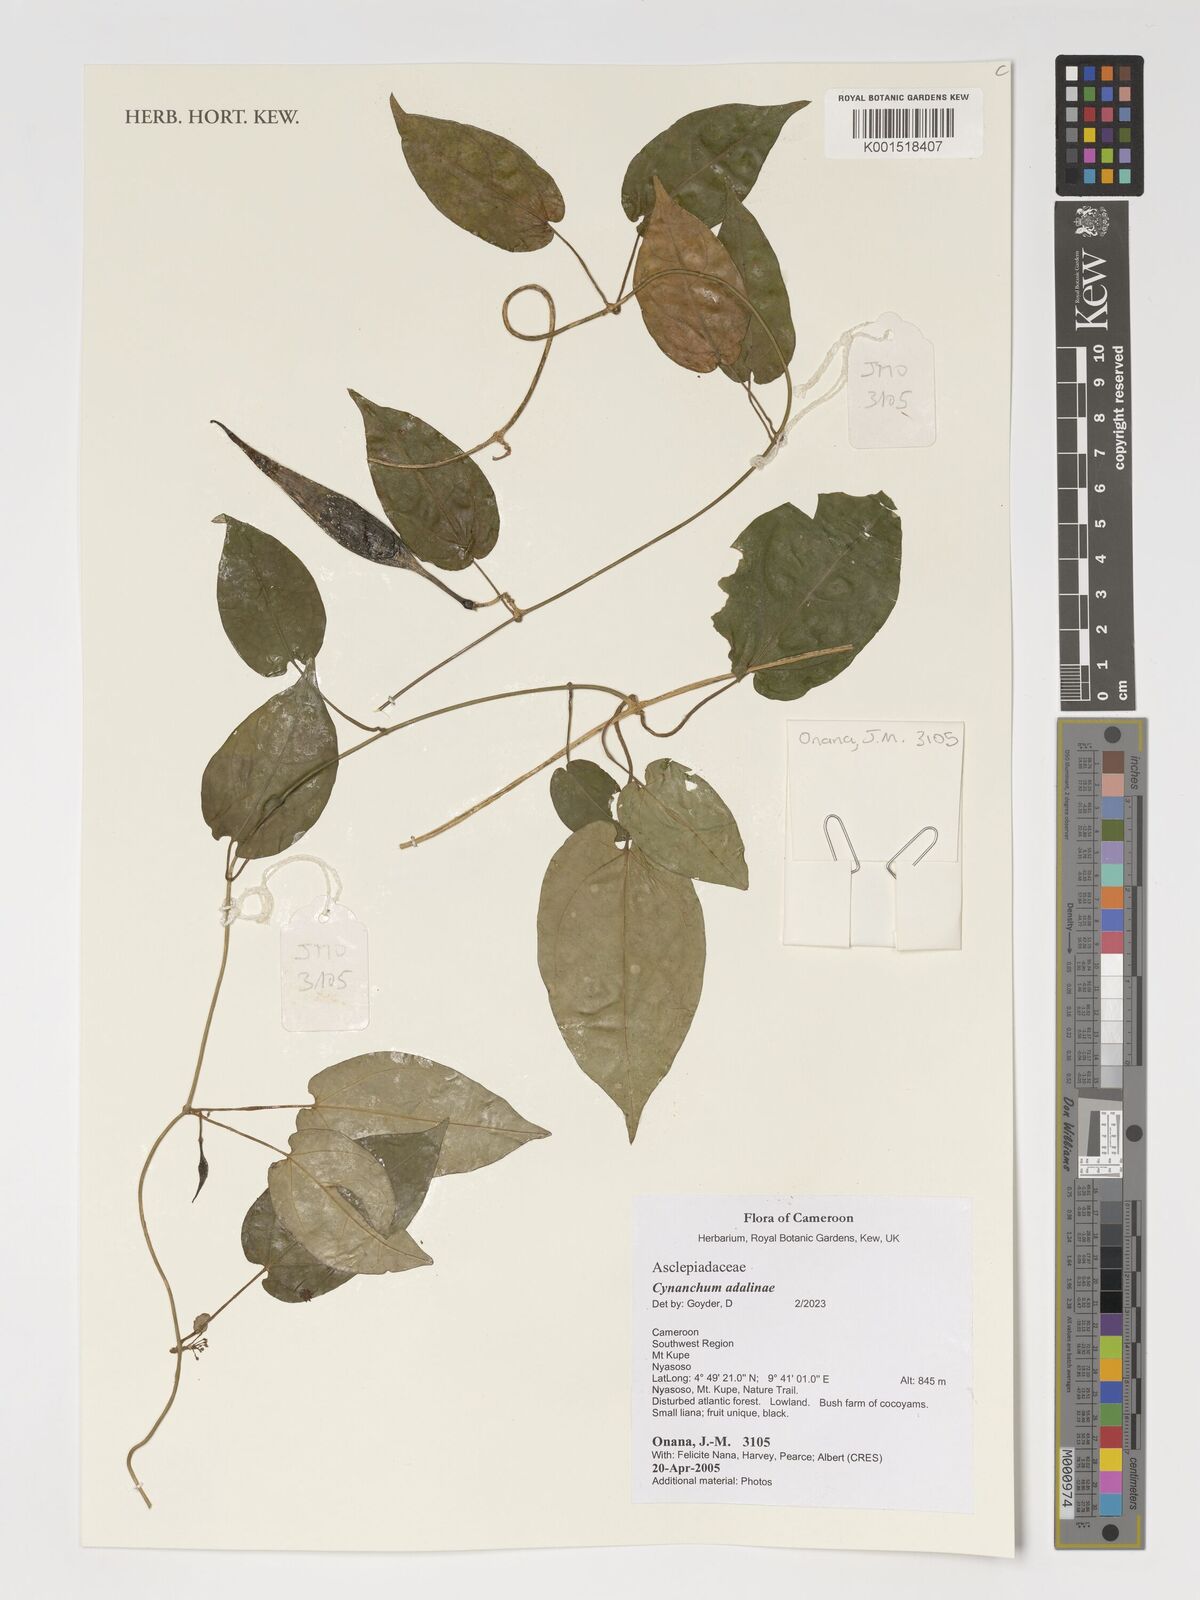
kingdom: Plantae
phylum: Tracheophyta
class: Magnoliopsida
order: Gentianales
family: Apocynaceae
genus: Cynanchum
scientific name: Cynanchum adalinae
